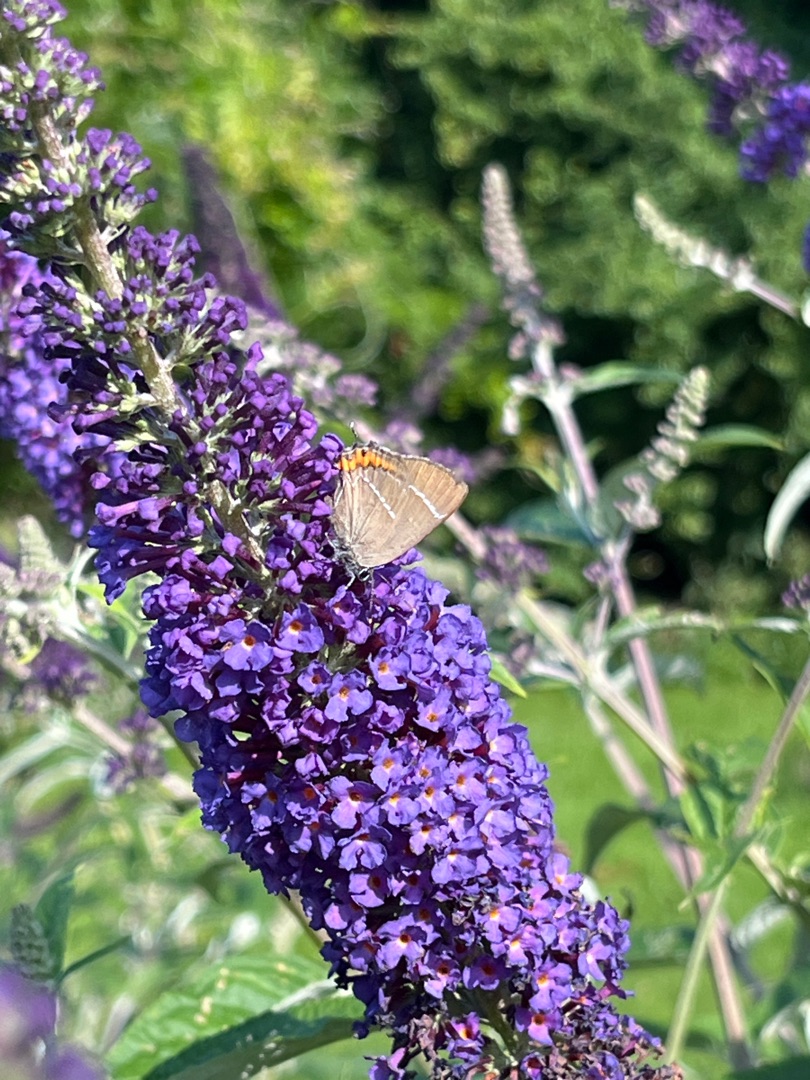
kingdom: Animalia
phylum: Arthropoda
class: Insecta
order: Lepidoptera
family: Lycaenidae
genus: Satyrium
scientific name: Satyrium w-album
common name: Det hvide W
